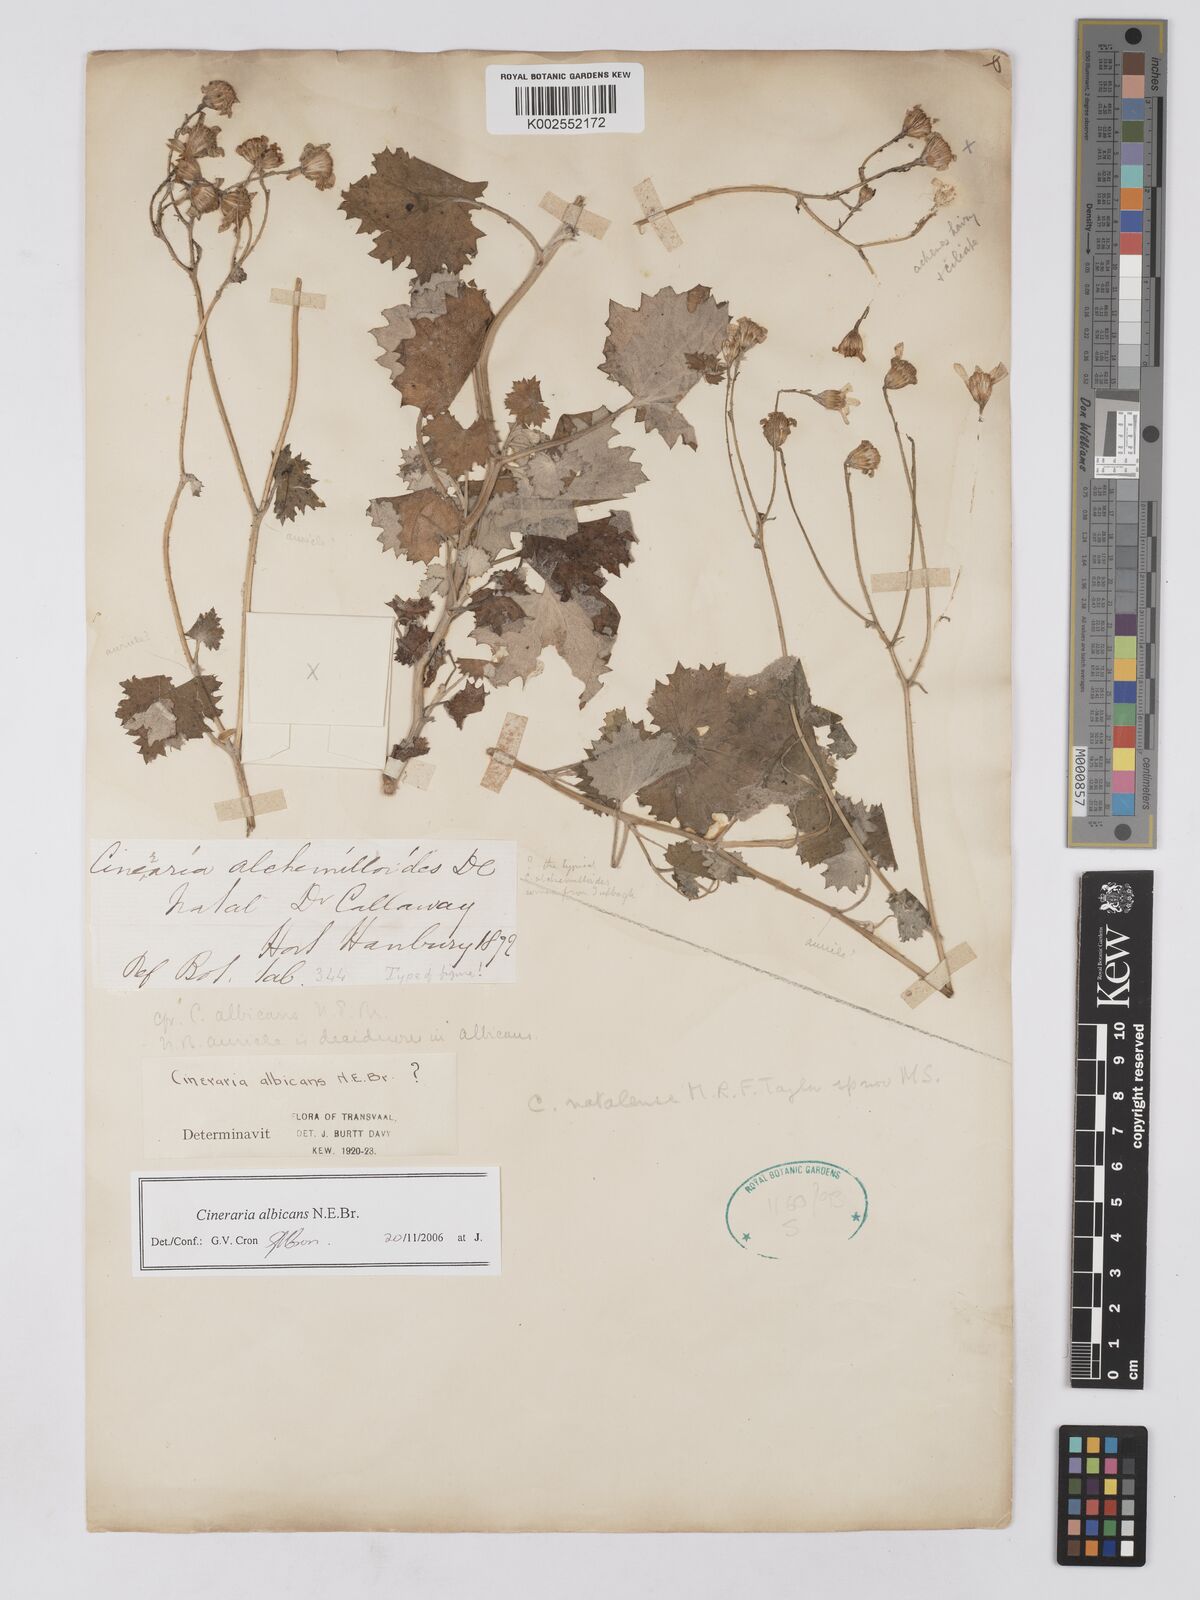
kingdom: Plantae
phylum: Tracheophyta
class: Magnoliopsida
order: Asterales
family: Asteraceae
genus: Cineraria
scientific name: Cineraria albicans
